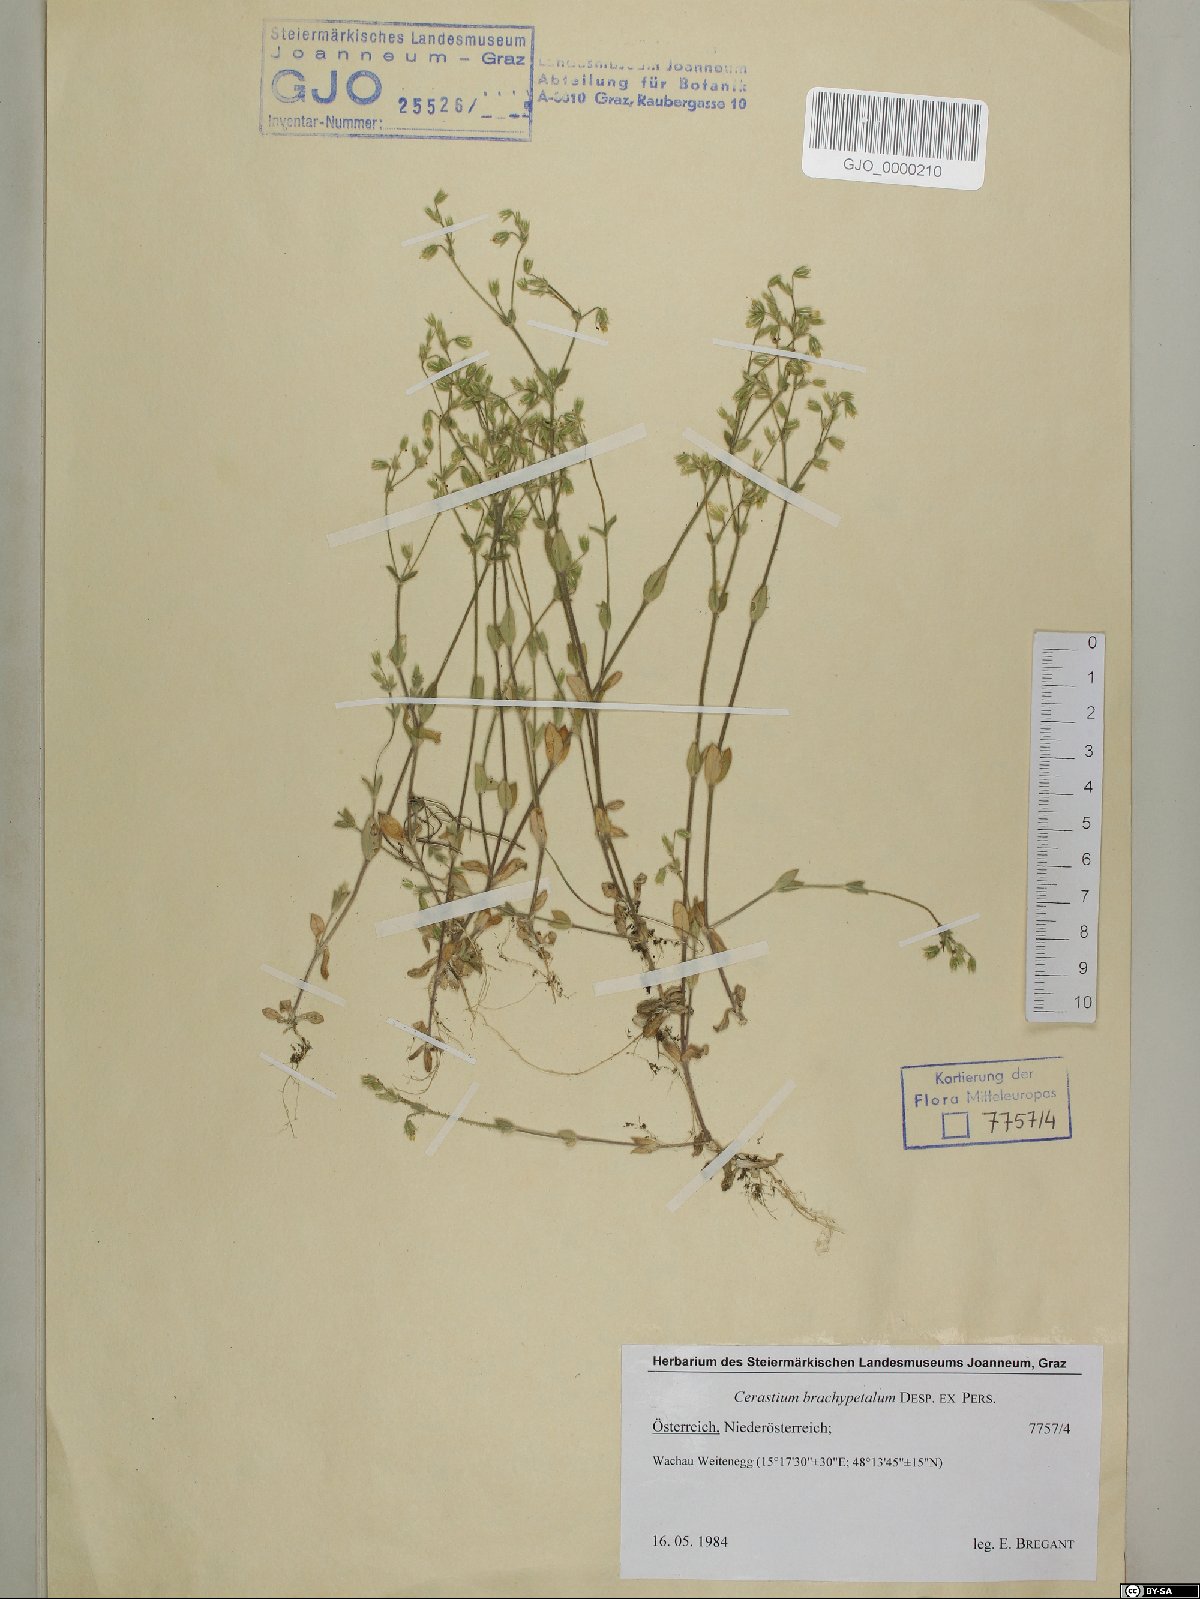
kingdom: Plantae
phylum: Tracheophyta
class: Magnoliopsida
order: Caryophyllales
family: Caryophyllaceae
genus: Cerastium
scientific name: Cerastium brachypetalum
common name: Grey mouse-ear
